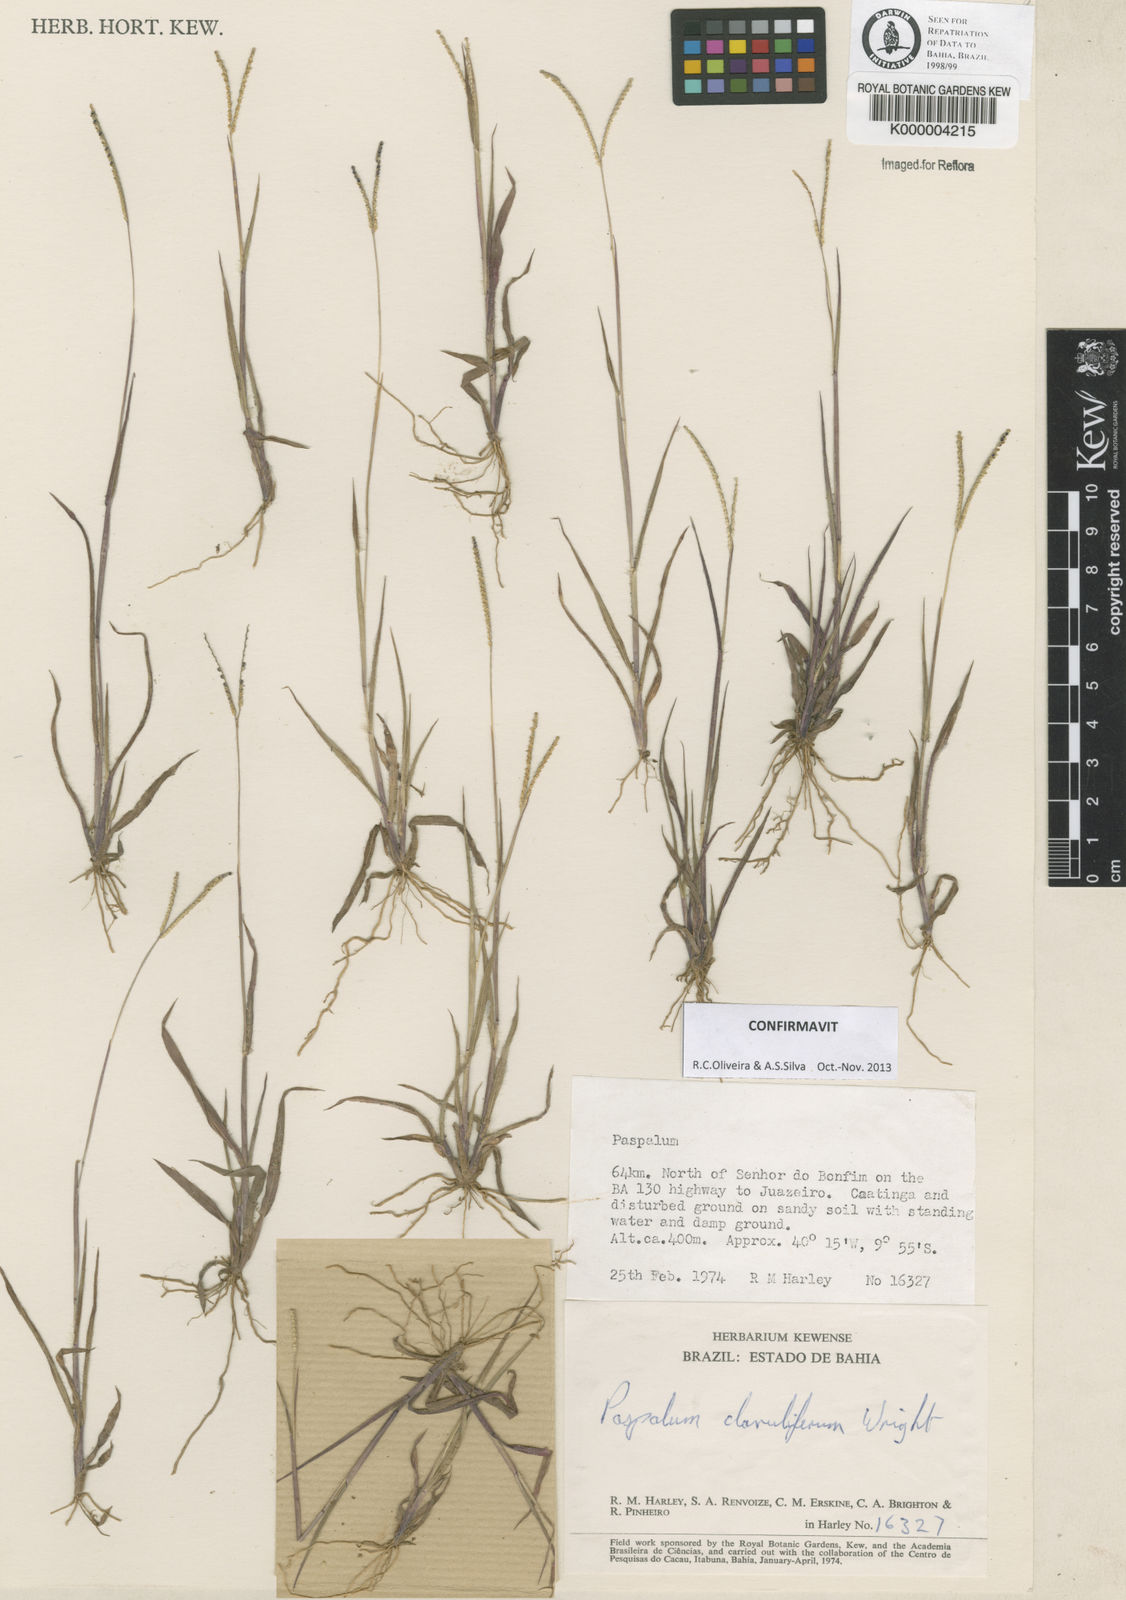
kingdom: Plantae
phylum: Tracheophyta
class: Liliopsida
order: Poales
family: Poaceae
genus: Paspalum
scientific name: Paspalum clavuliferum
